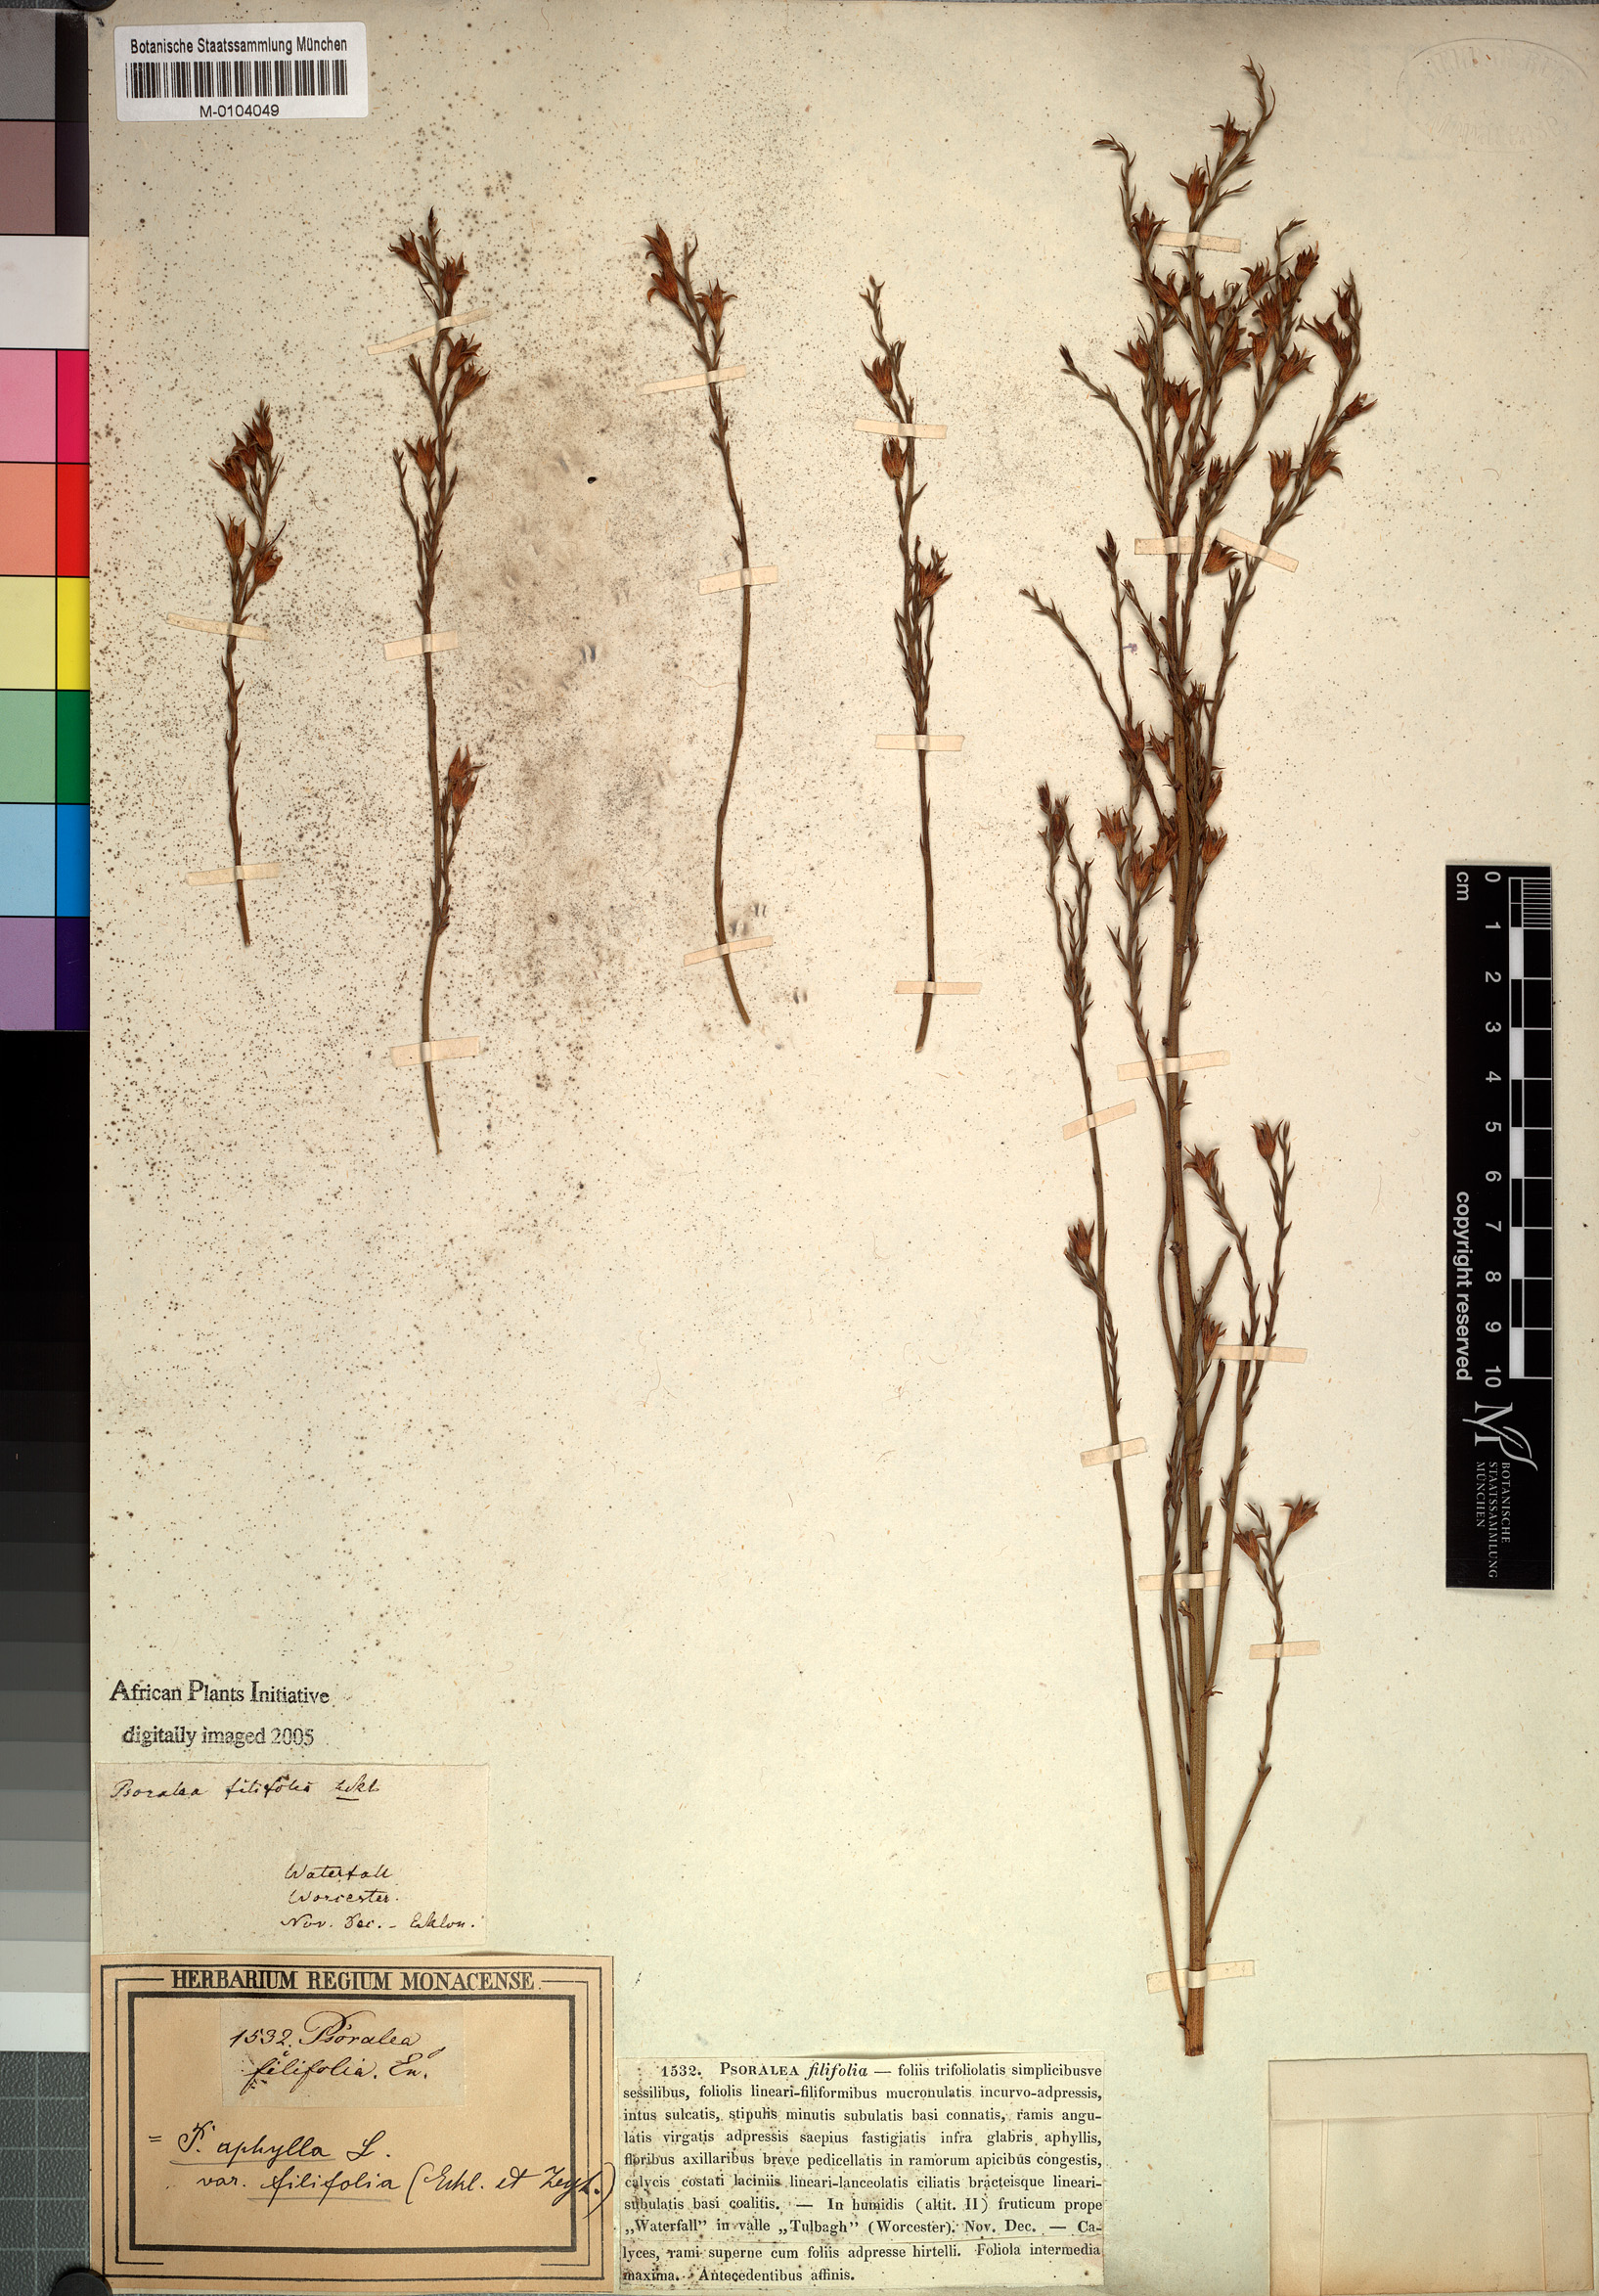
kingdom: Plantae
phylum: Tracheophyta
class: Magnoliopsida
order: Fabales
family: Fabaceae
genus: Psoralea
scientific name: Psoralea aphylla
